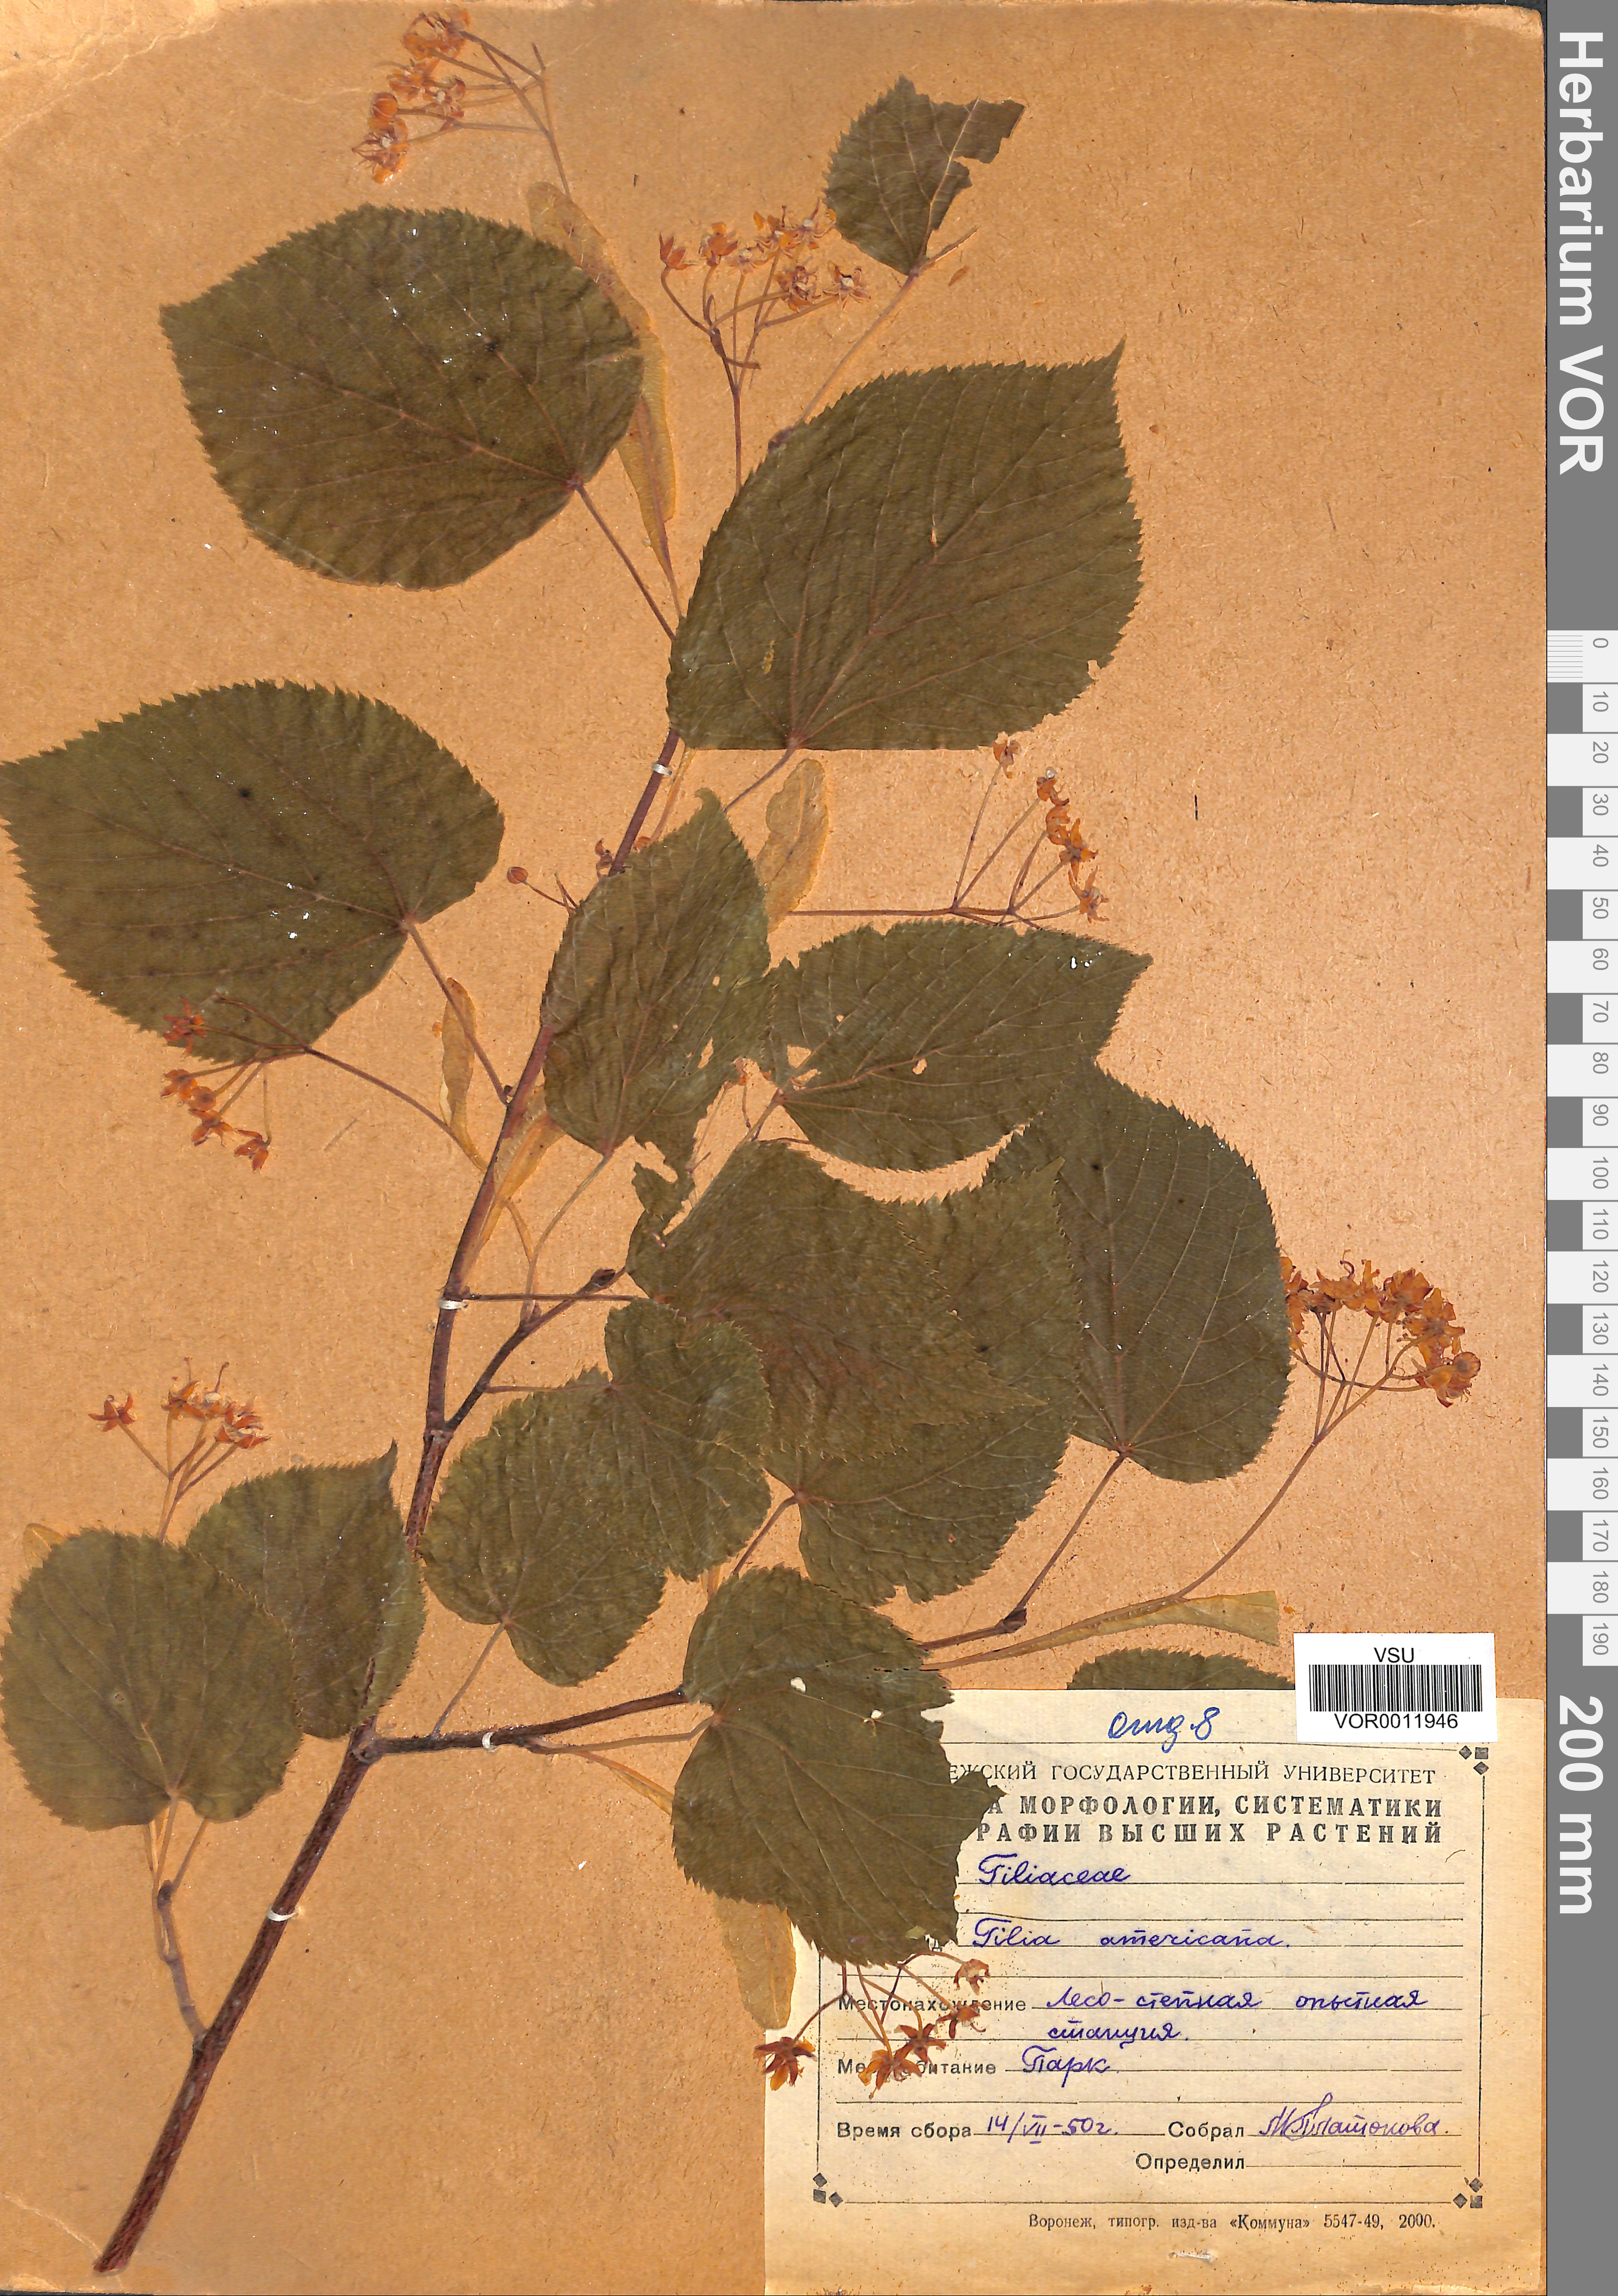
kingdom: Plantae
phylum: Tracheophyta
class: Magnoliopsida
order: Malvales
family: Malvaceae
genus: Tilia
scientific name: Tilia americana
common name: Basswood
